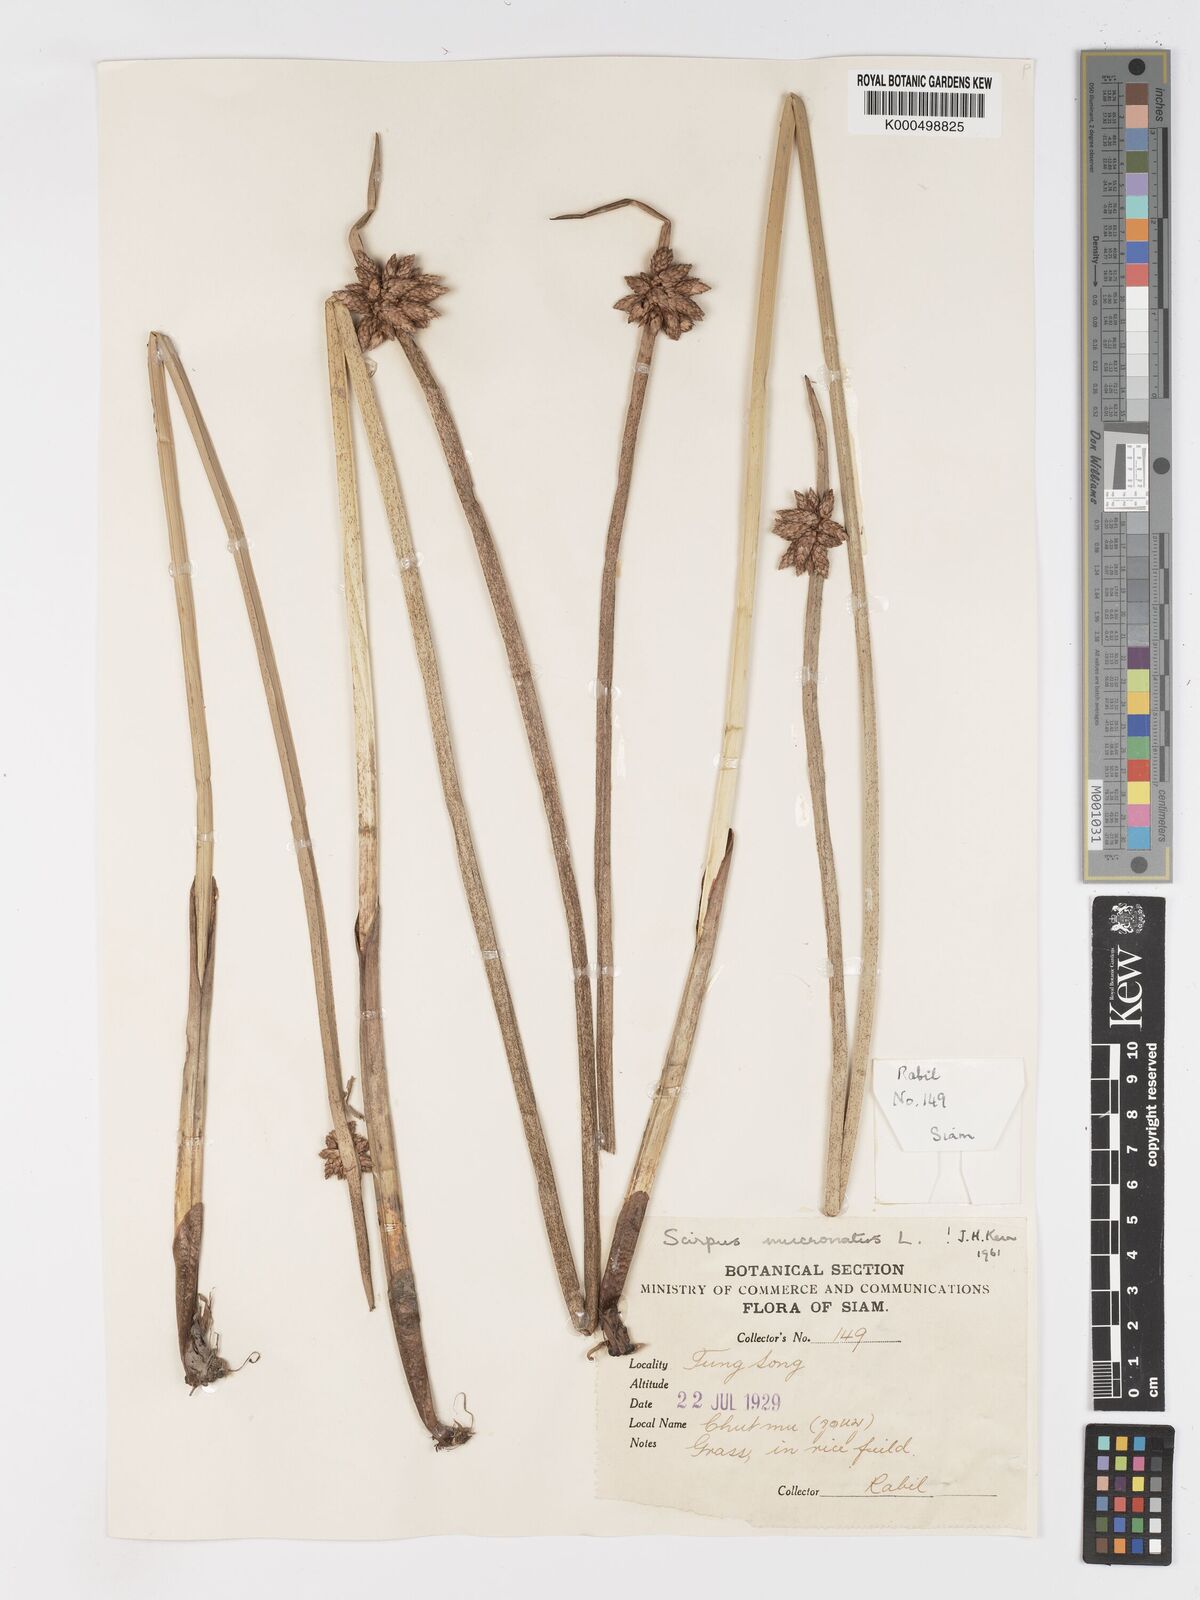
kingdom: Plantae
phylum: Tracheophyta
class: Liliopsida
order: Poales
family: Cyperaceae
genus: Schoenoplectiella
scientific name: Schoenoplectiella mucronata
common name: Bog bulrush
